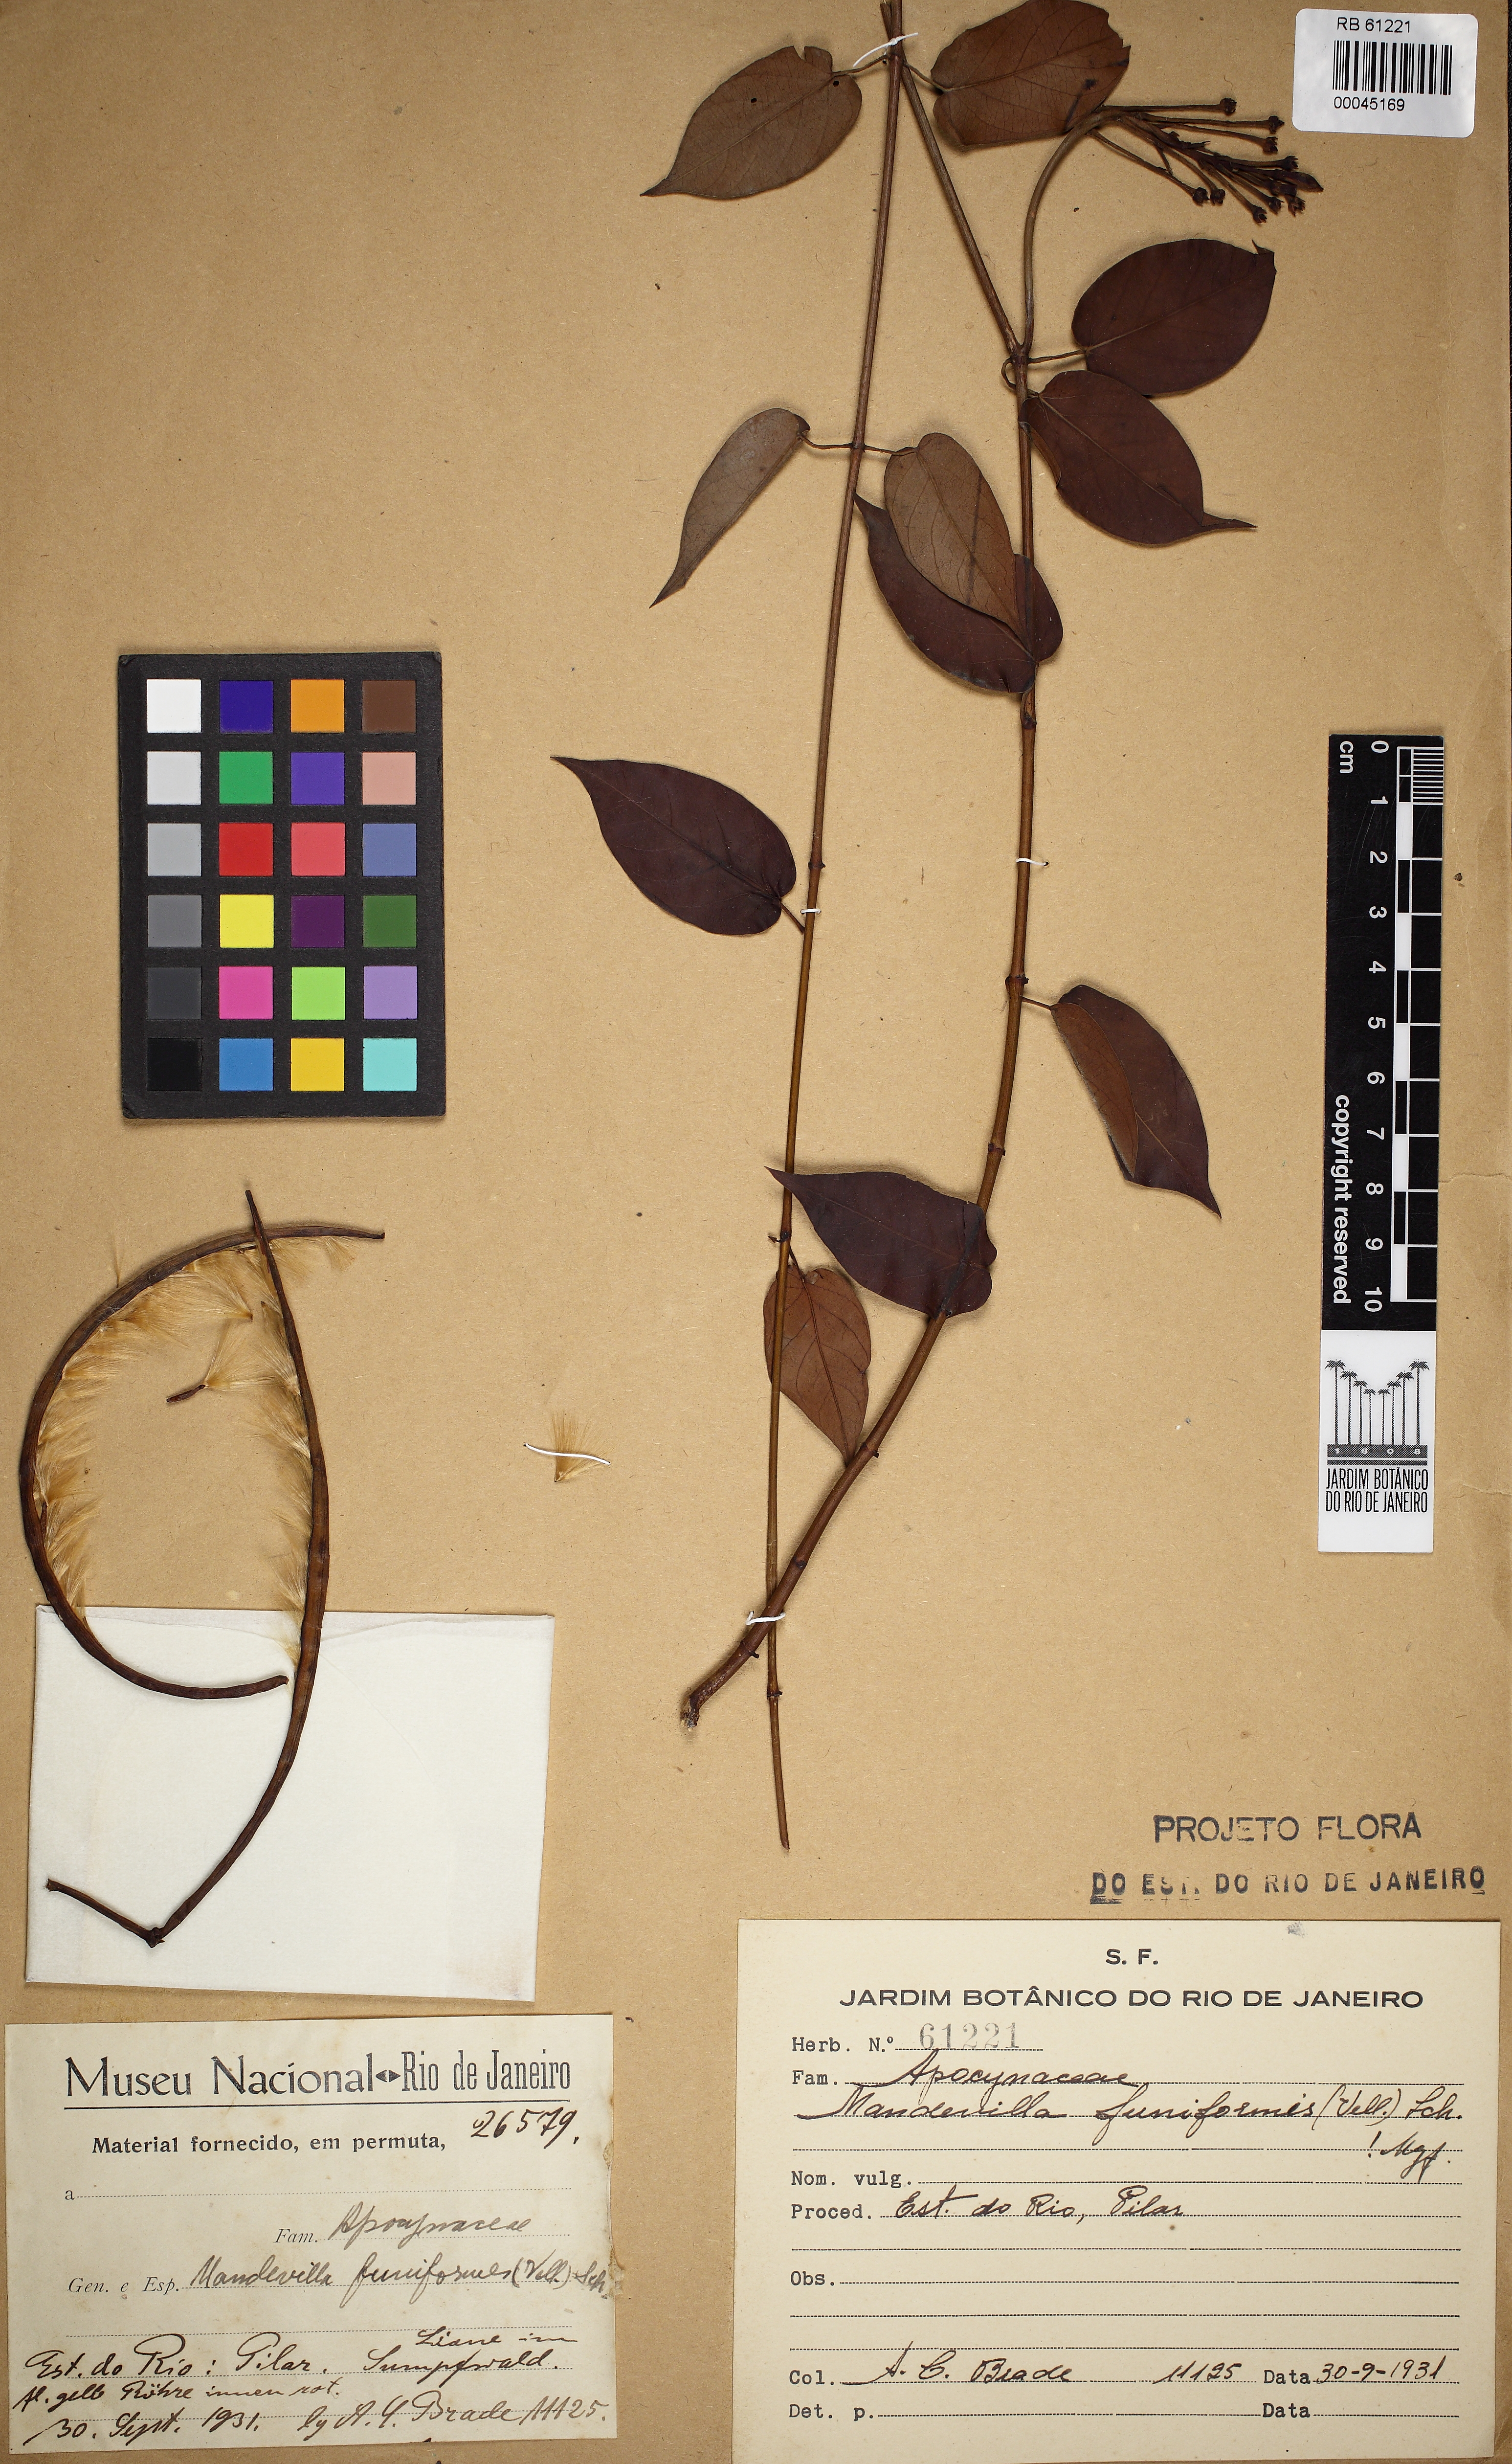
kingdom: Plantae
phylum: Tracheophyta
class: Magnoliopsida
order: Gentianales
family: Apocynaceae
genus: Mandevilla
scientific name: Mandevilla funiformis
